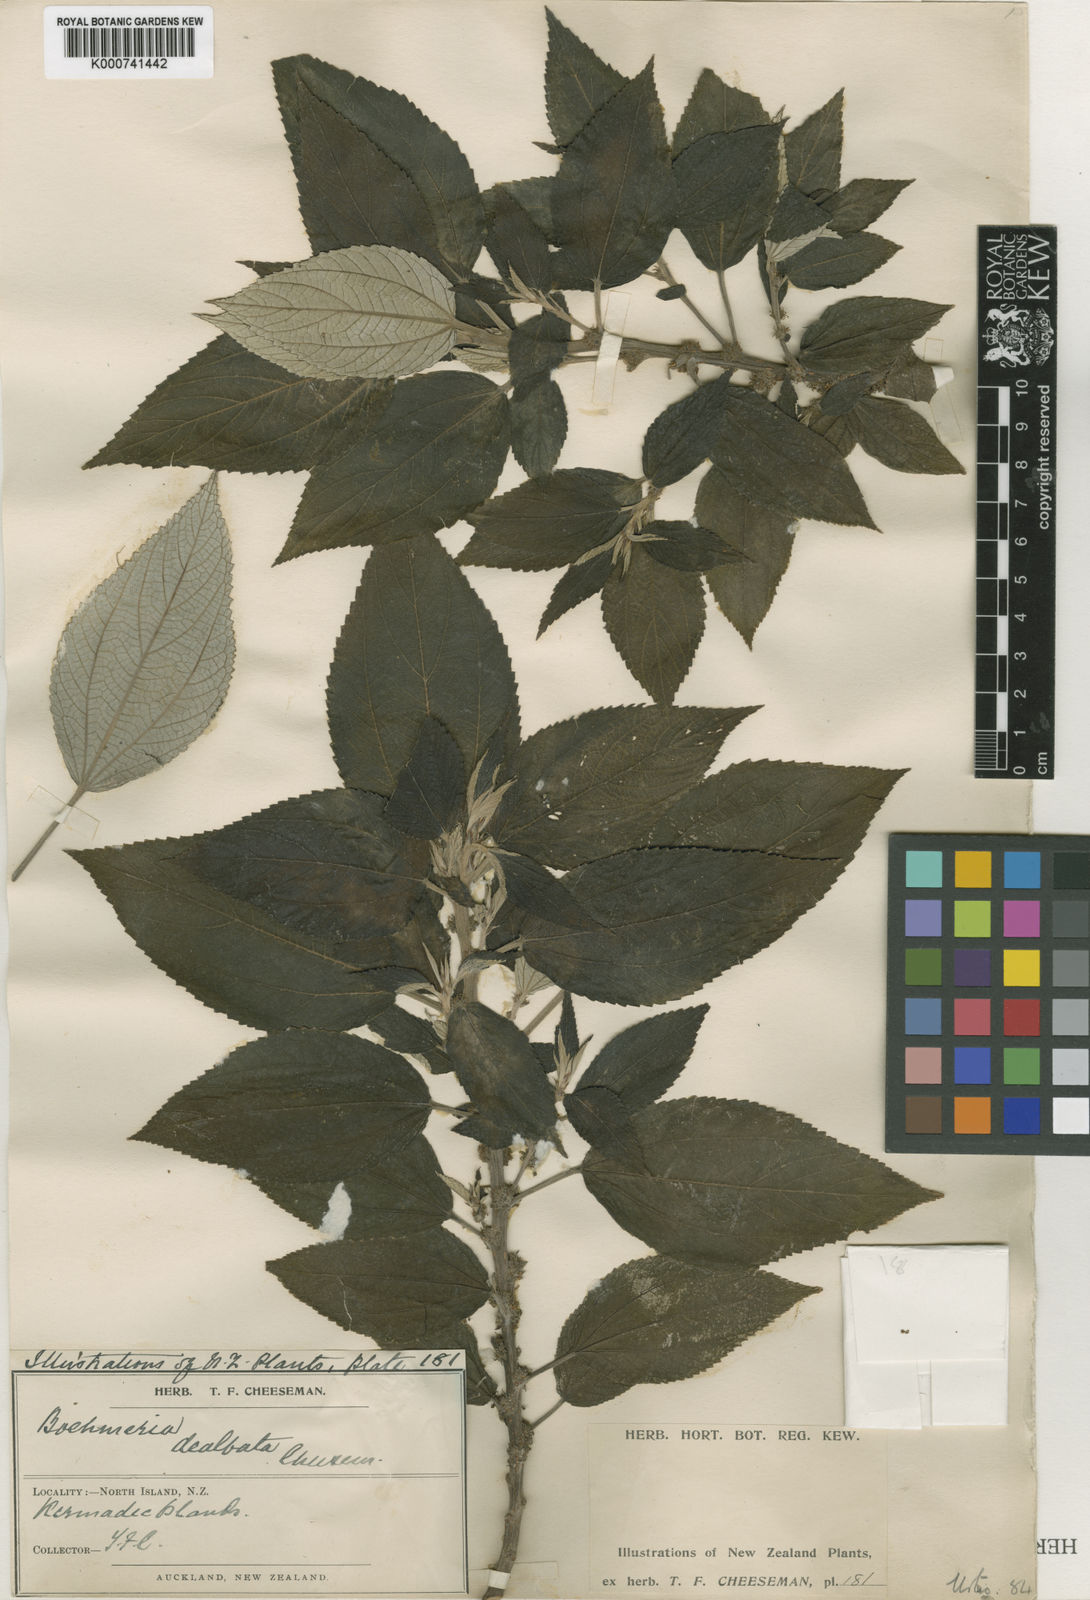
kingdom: Plantae
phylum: Tracheophyta
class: Magnoliopsida
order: Rosales
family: Urticaceae
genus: Pouzolzia
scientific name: Pouzolzia australis
